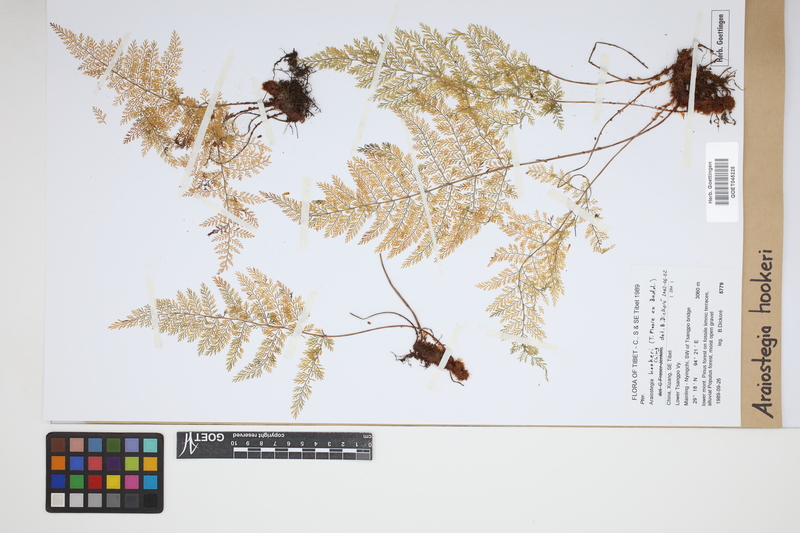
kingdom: Plantae
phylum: Tracheophyta
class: Polypodiopsida
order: Polypodiales
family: Davalliaceae
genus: Davallia
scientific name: Davallia hookeri
